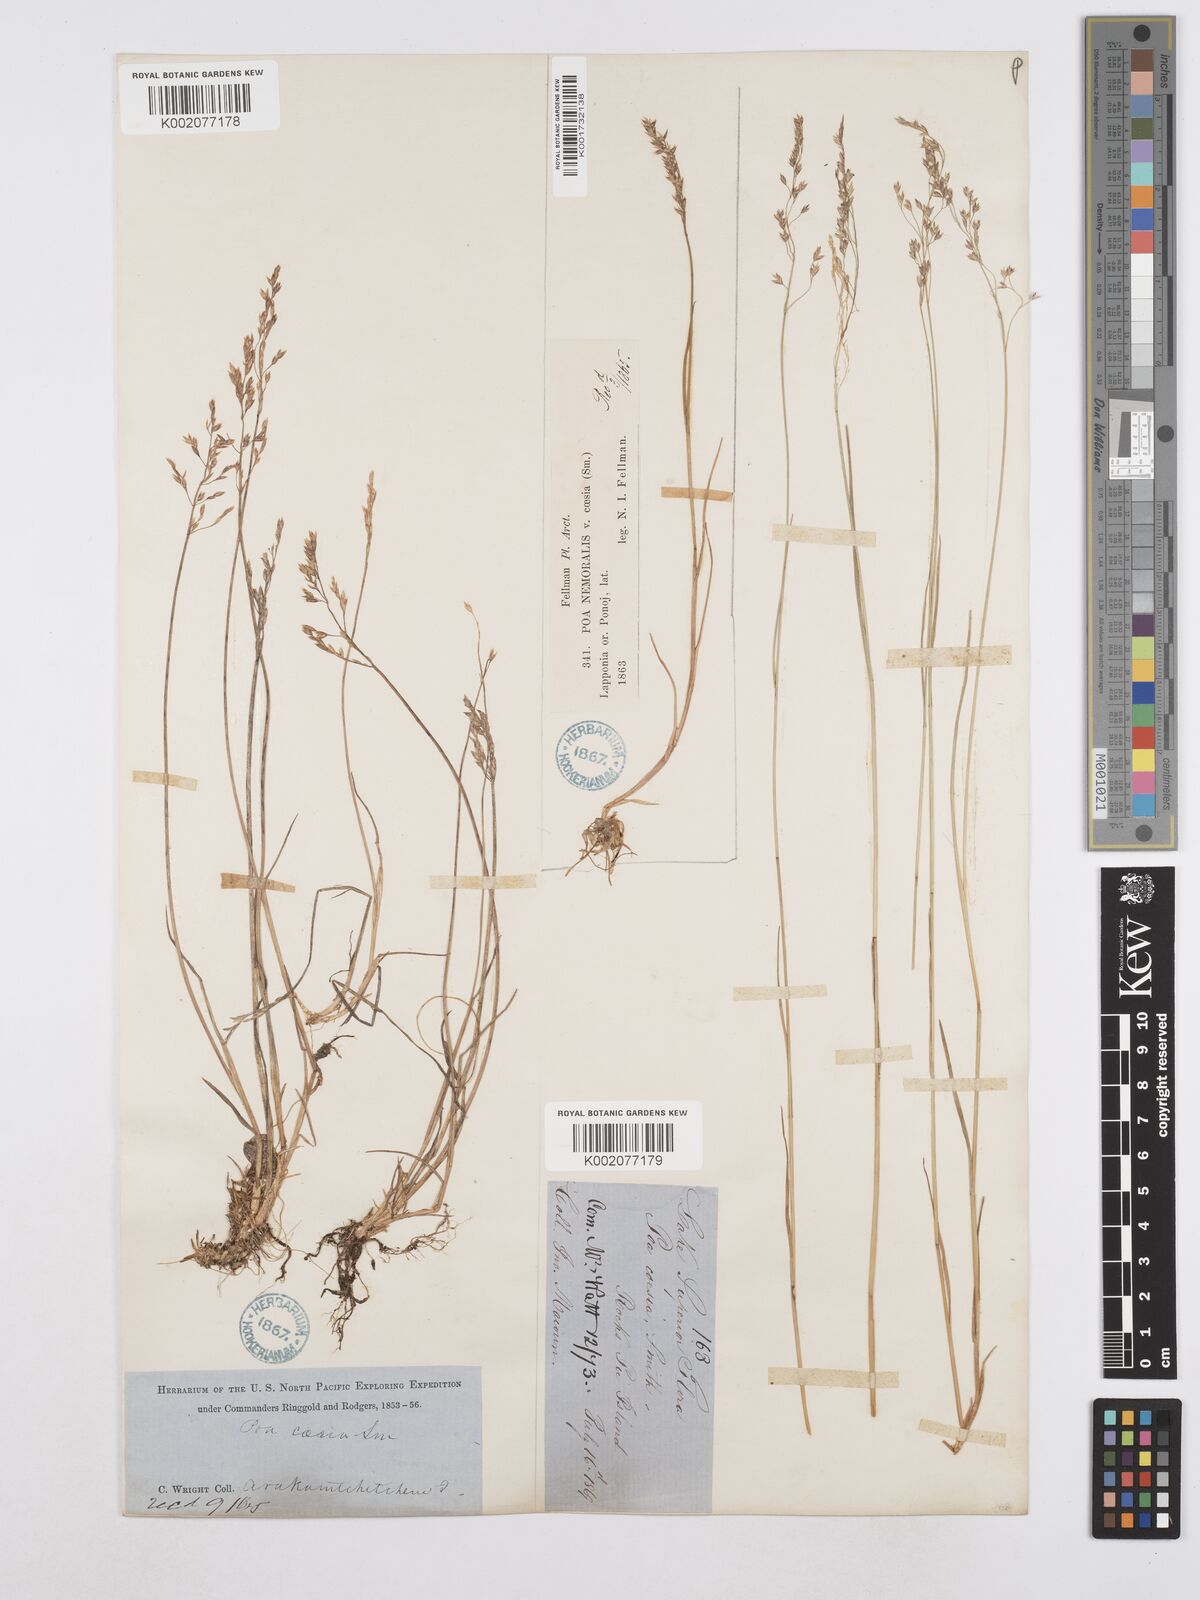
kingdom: Plantae
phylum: Tracheophyta
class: Liliopsida
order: Poales
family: Poaceae
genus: Poa
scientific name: Poa nemoralis
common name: Wood bluegrass
